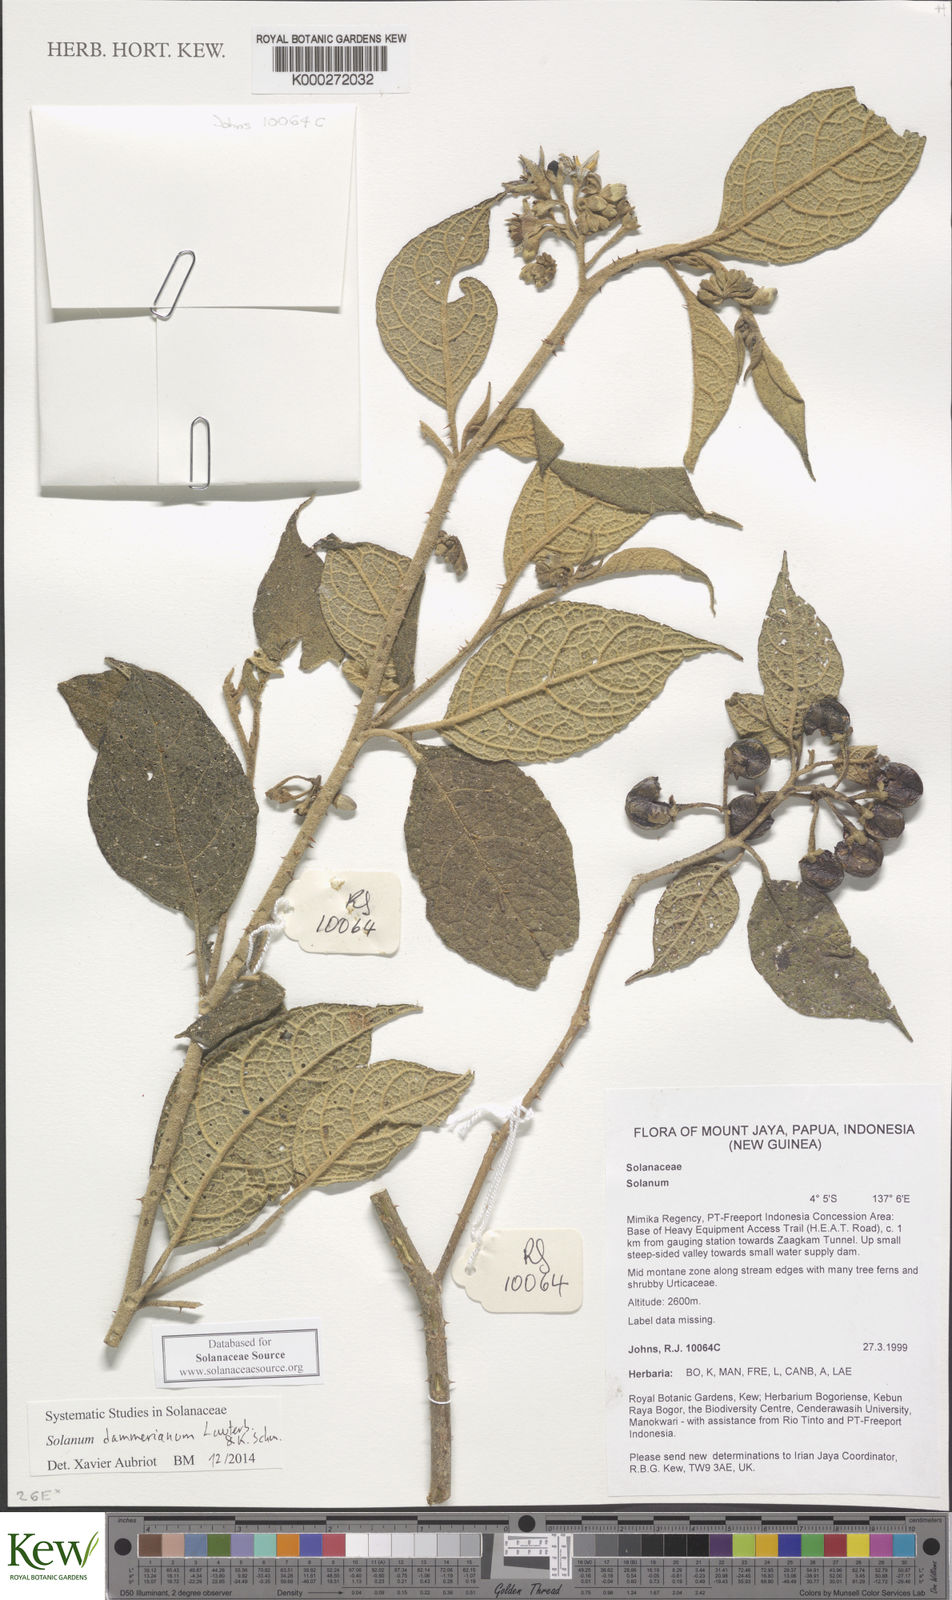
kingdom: Plantae
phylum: Tracheophyta
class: Magnoliopsida
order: Solanales
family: Solanaceae
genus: Solanum
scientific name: Solanum dammerianum
